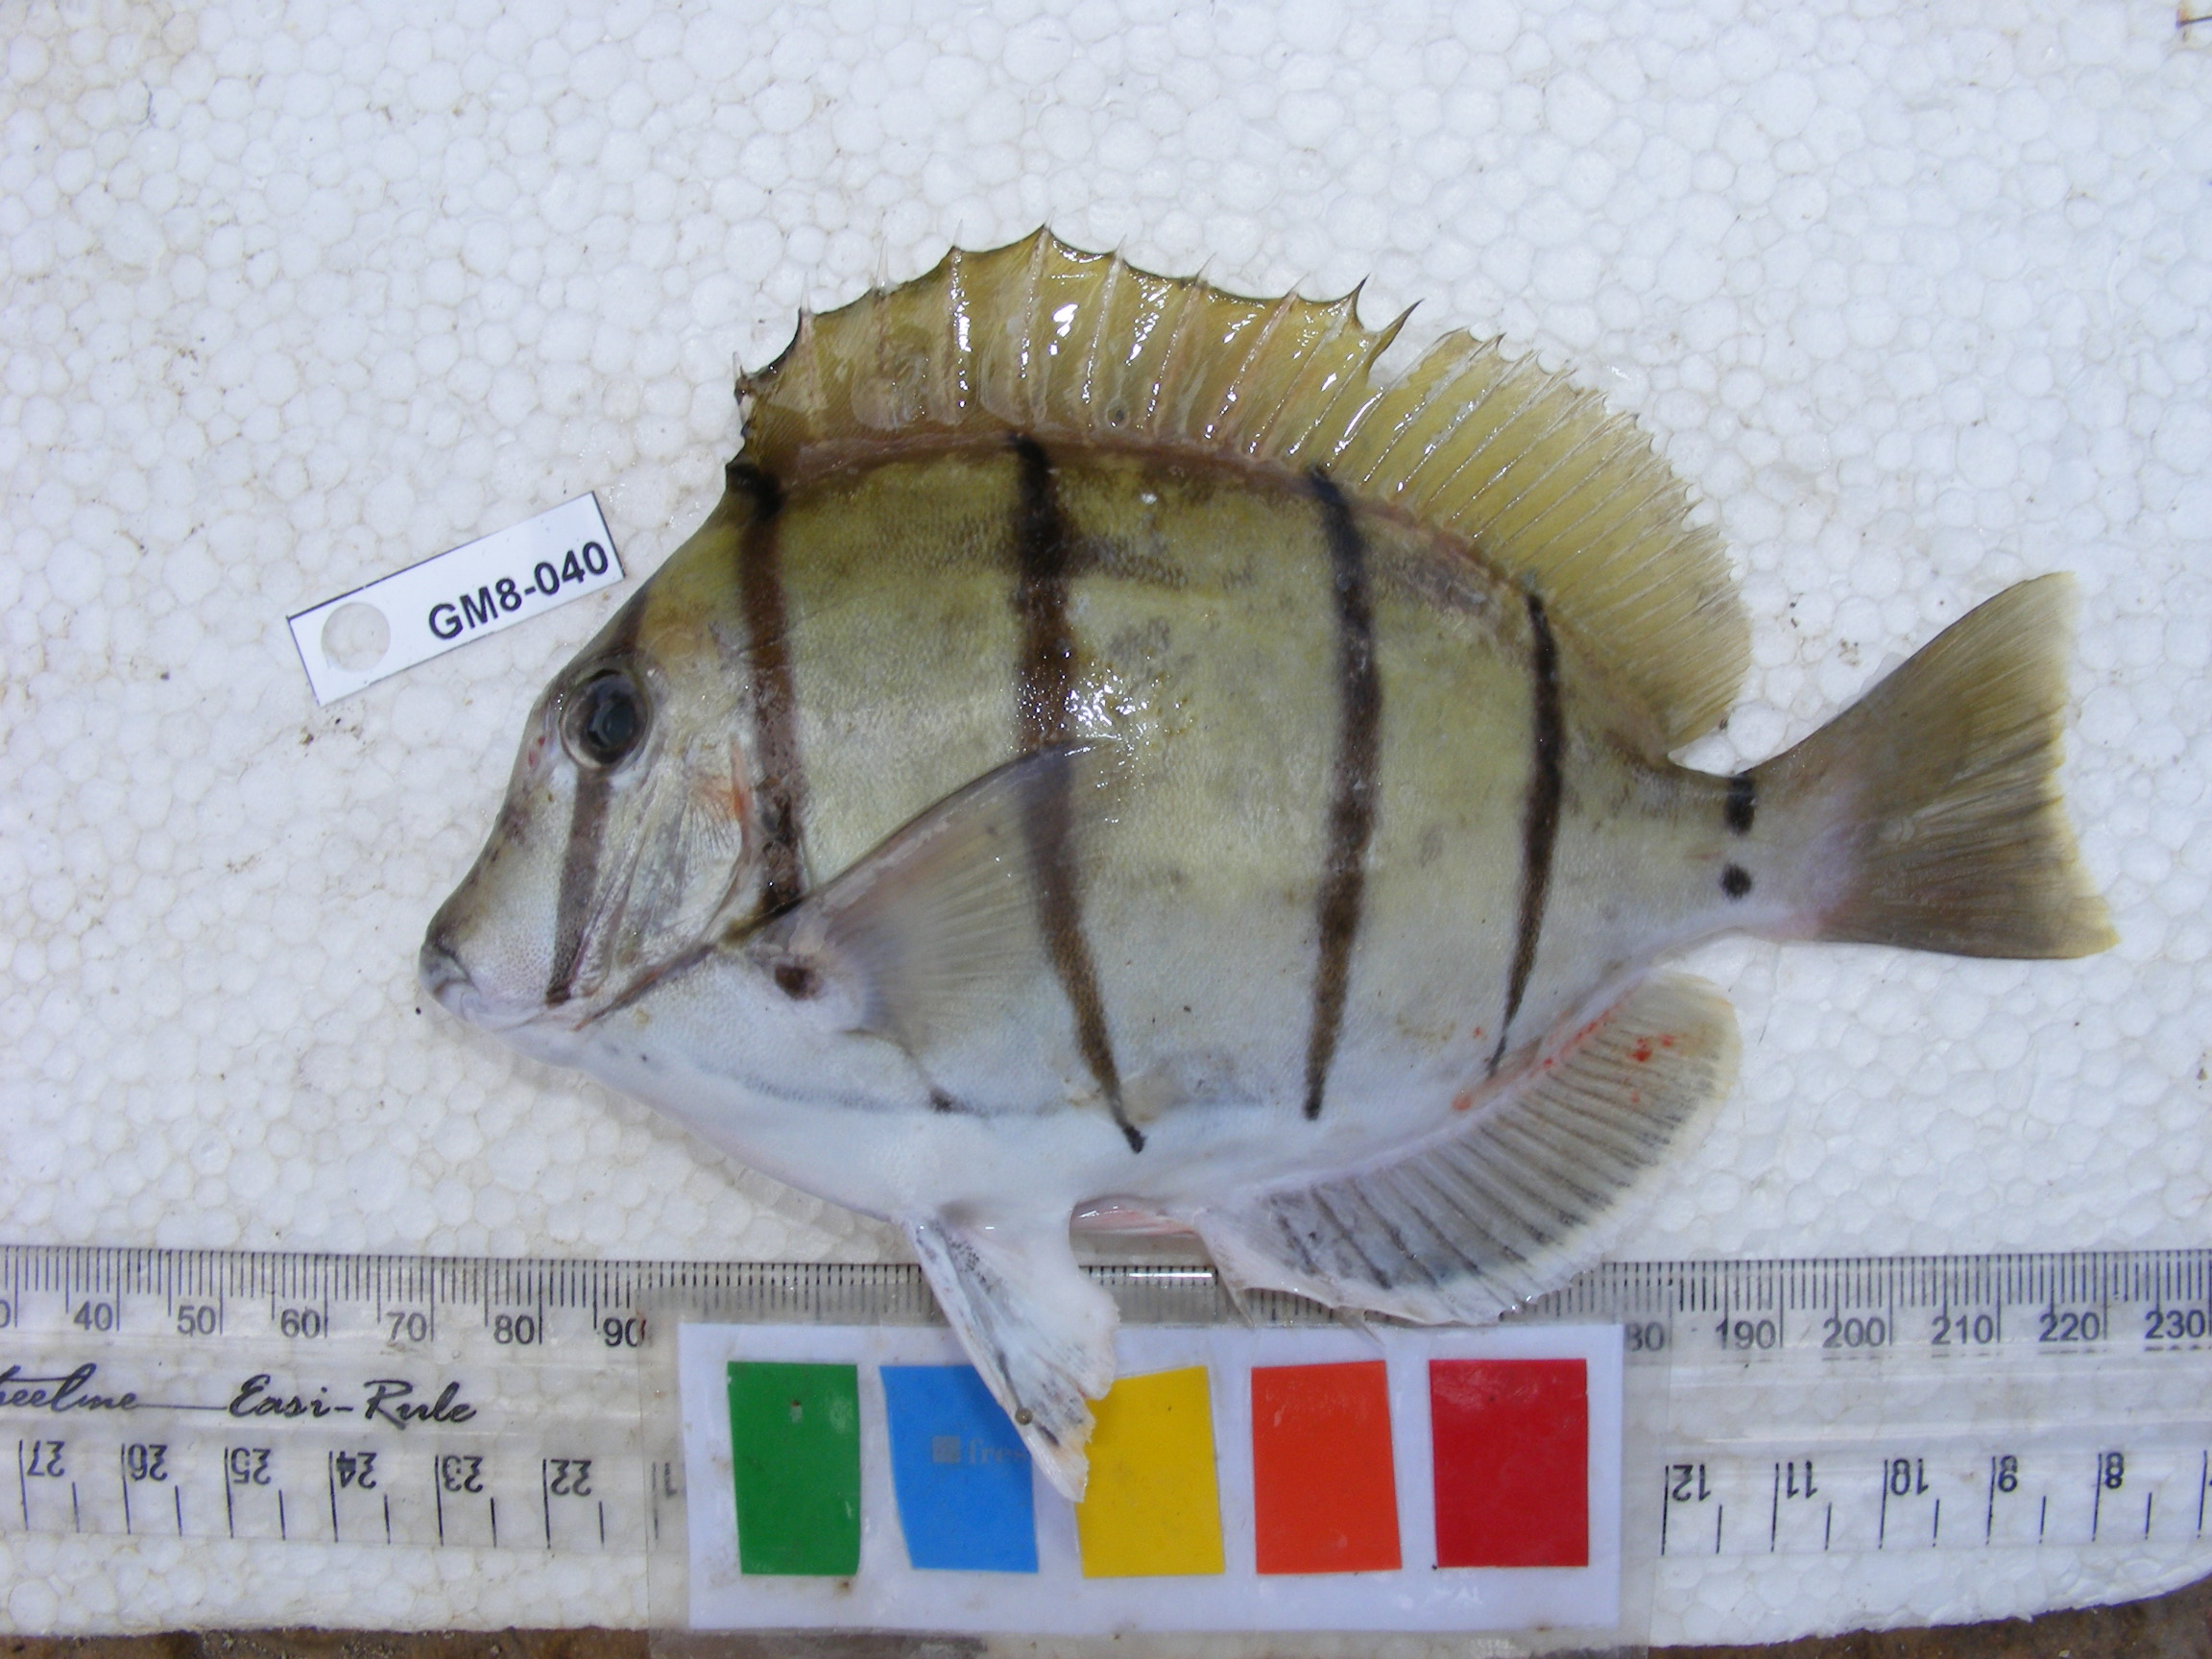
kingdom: Animalia
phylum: Chordata
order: Perciformes
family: Acanthuridae
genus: Acanthurus
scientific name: Acanthurus triostegus
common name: Convict surgeonfish
